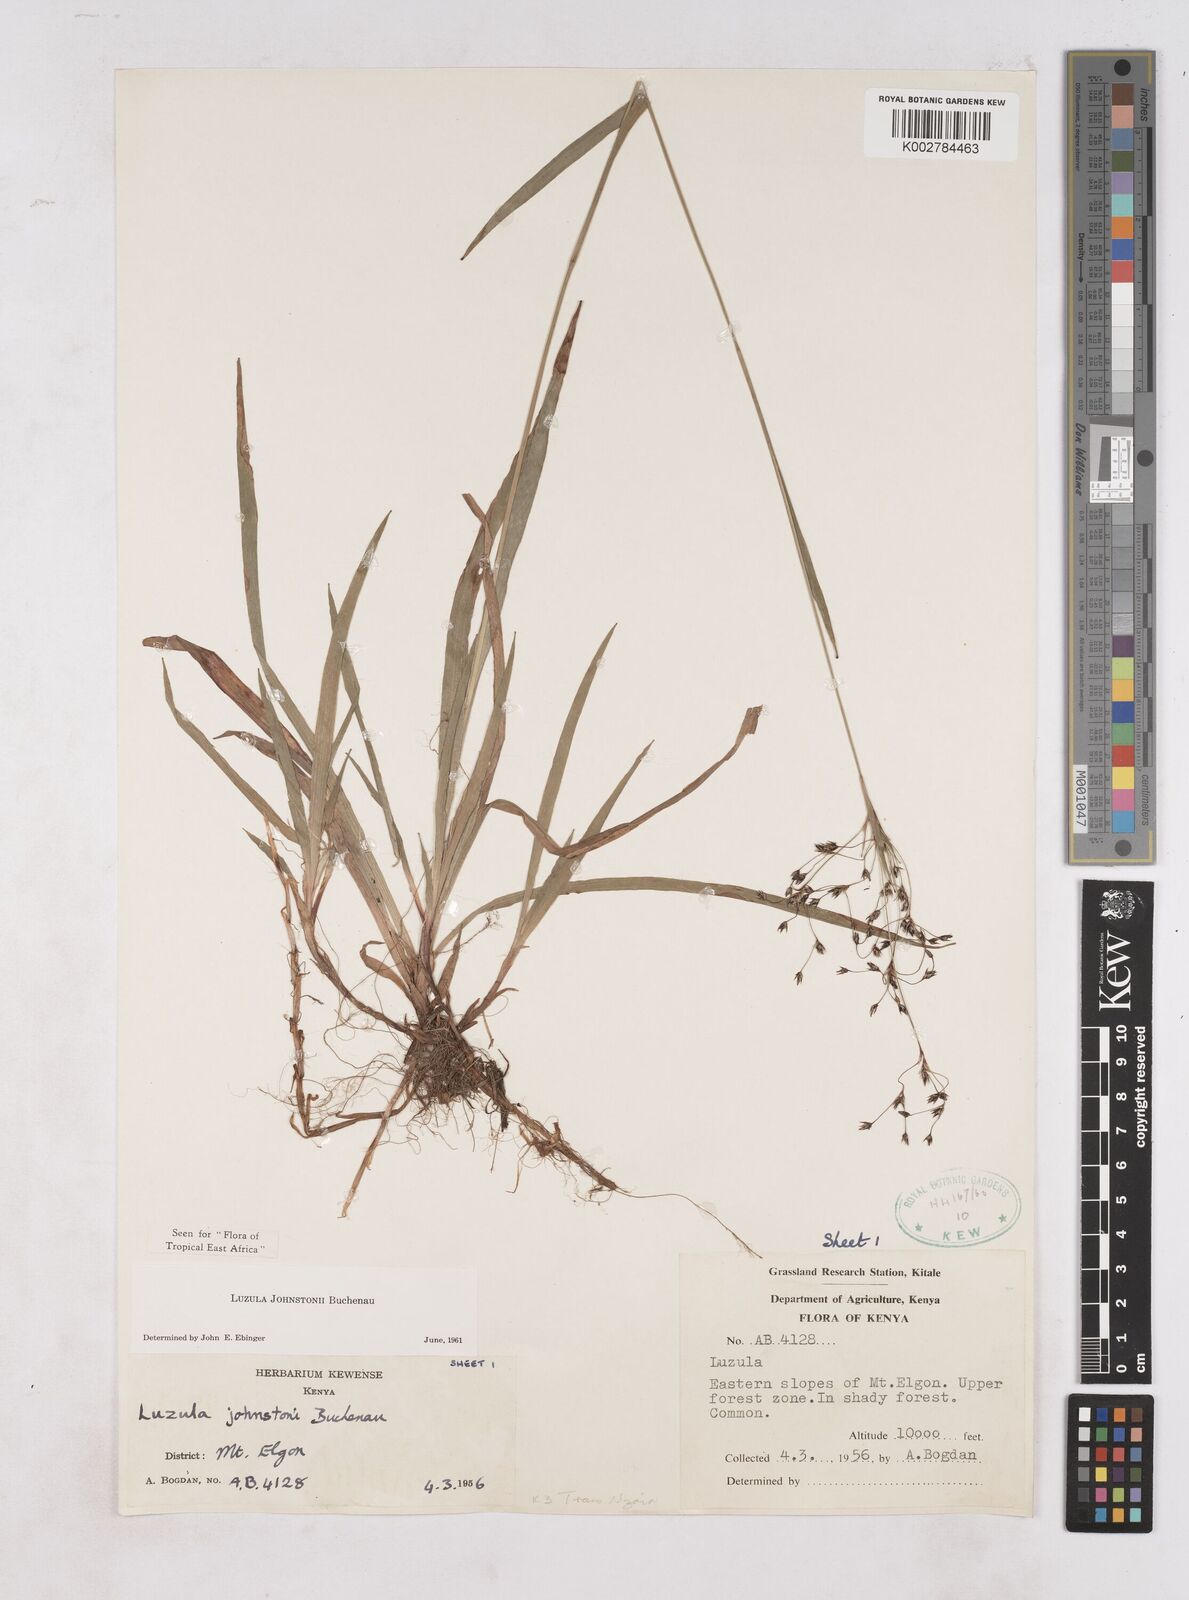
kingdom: Plantae
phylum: Tracheophyta
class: Liliopsida
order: Poales
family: Juncaceae
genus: Luzula
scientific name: Luzula johnstonii
